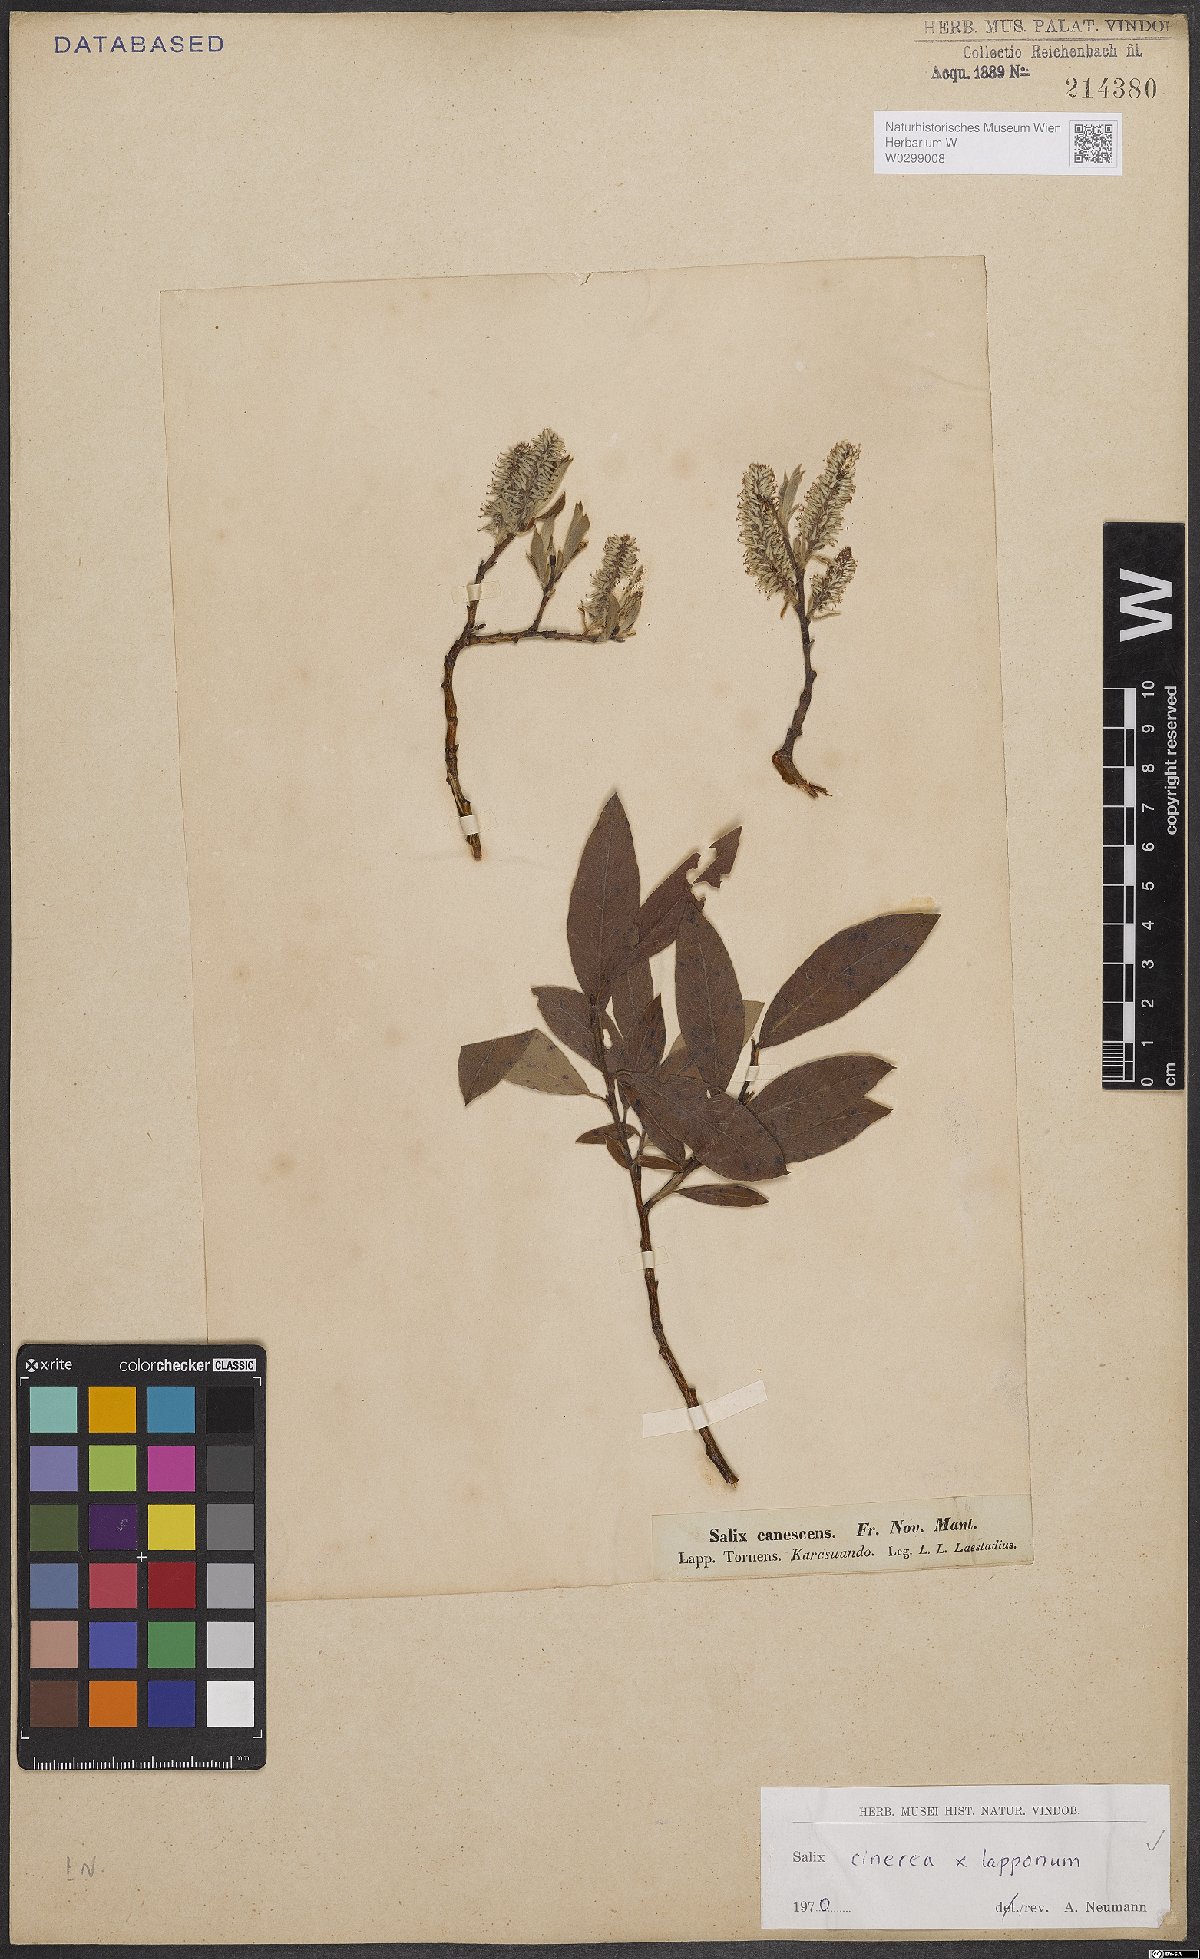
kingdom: Plantae
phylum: Tracheophyta
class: Magnoliopsida
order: Malpighiales
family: Salicaceae
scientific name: Salicaceae
